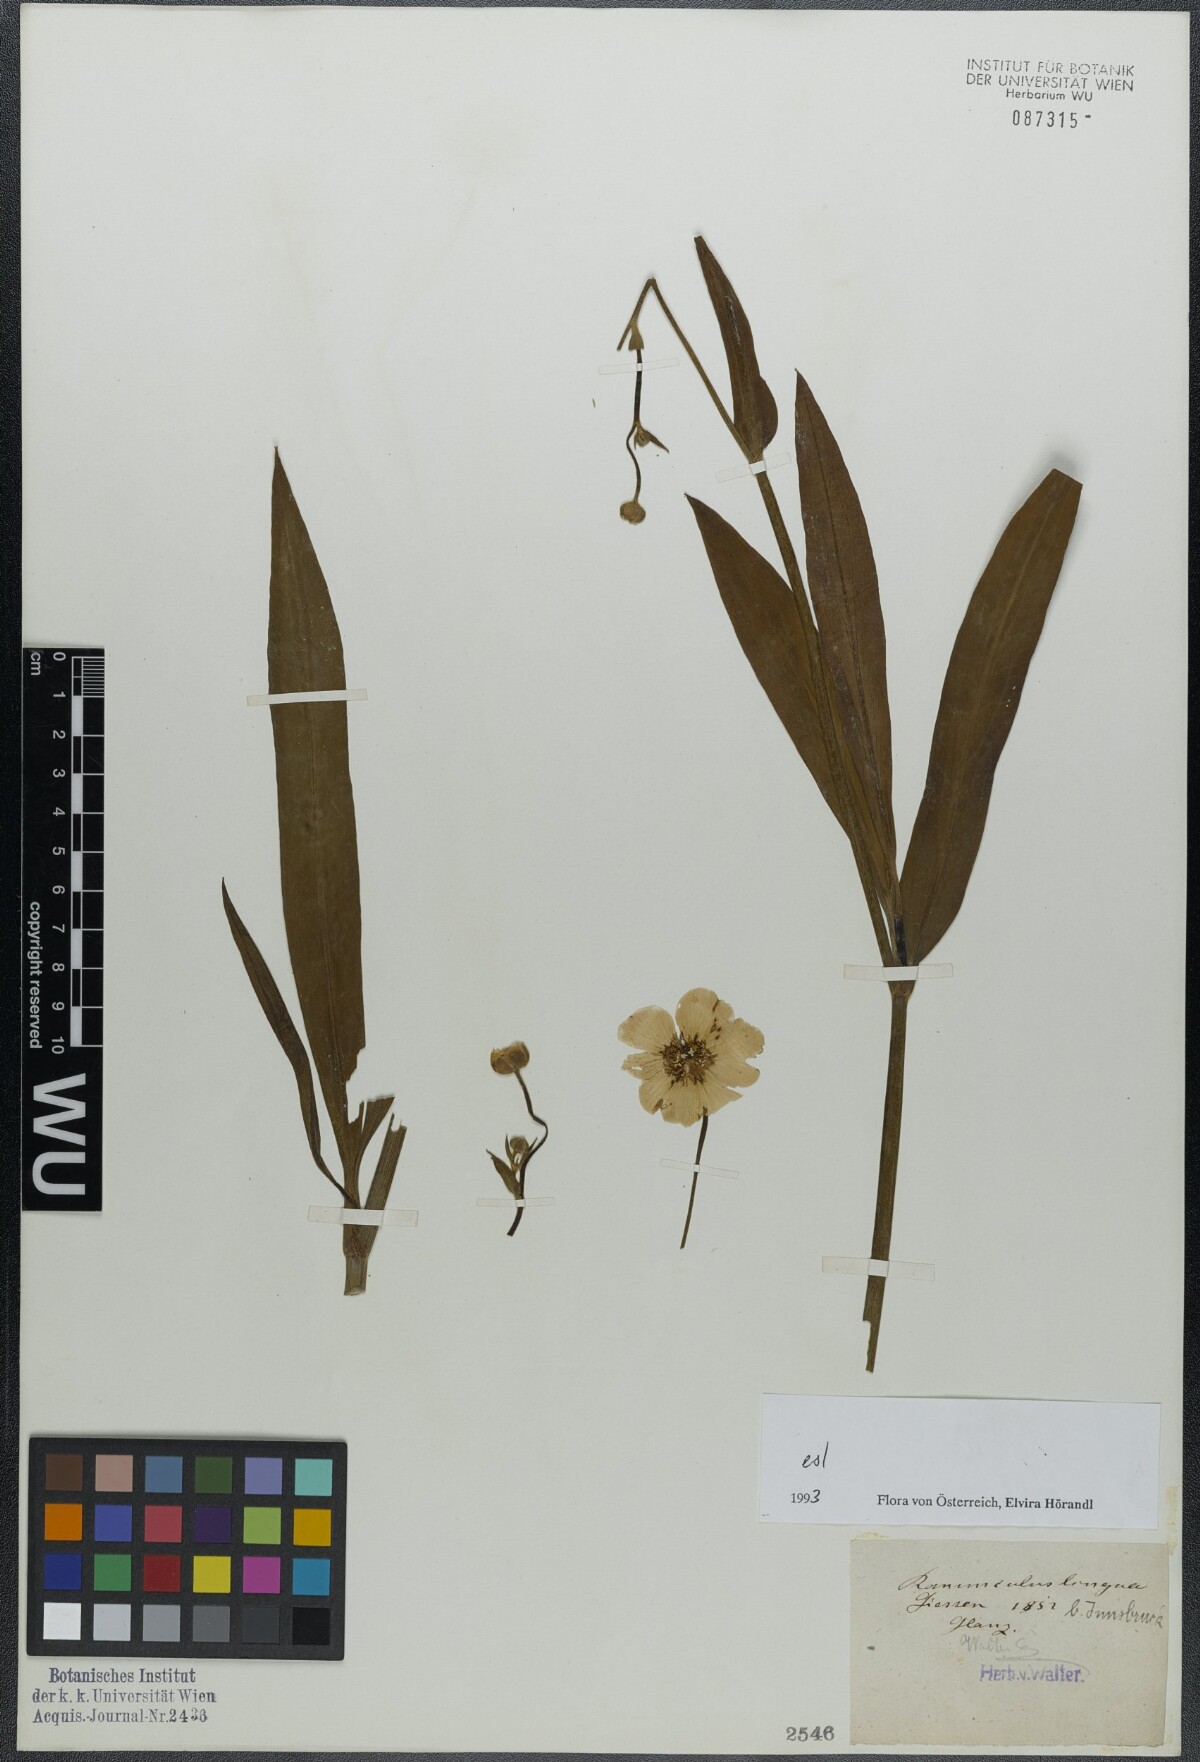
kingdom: Plantae
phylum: Tracheophyta
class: Magnoliopsida
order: Ranunculales
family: Ranunculaceae
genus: Ranunculus
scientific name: Ranunculus lingua
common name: Greater spearwort
